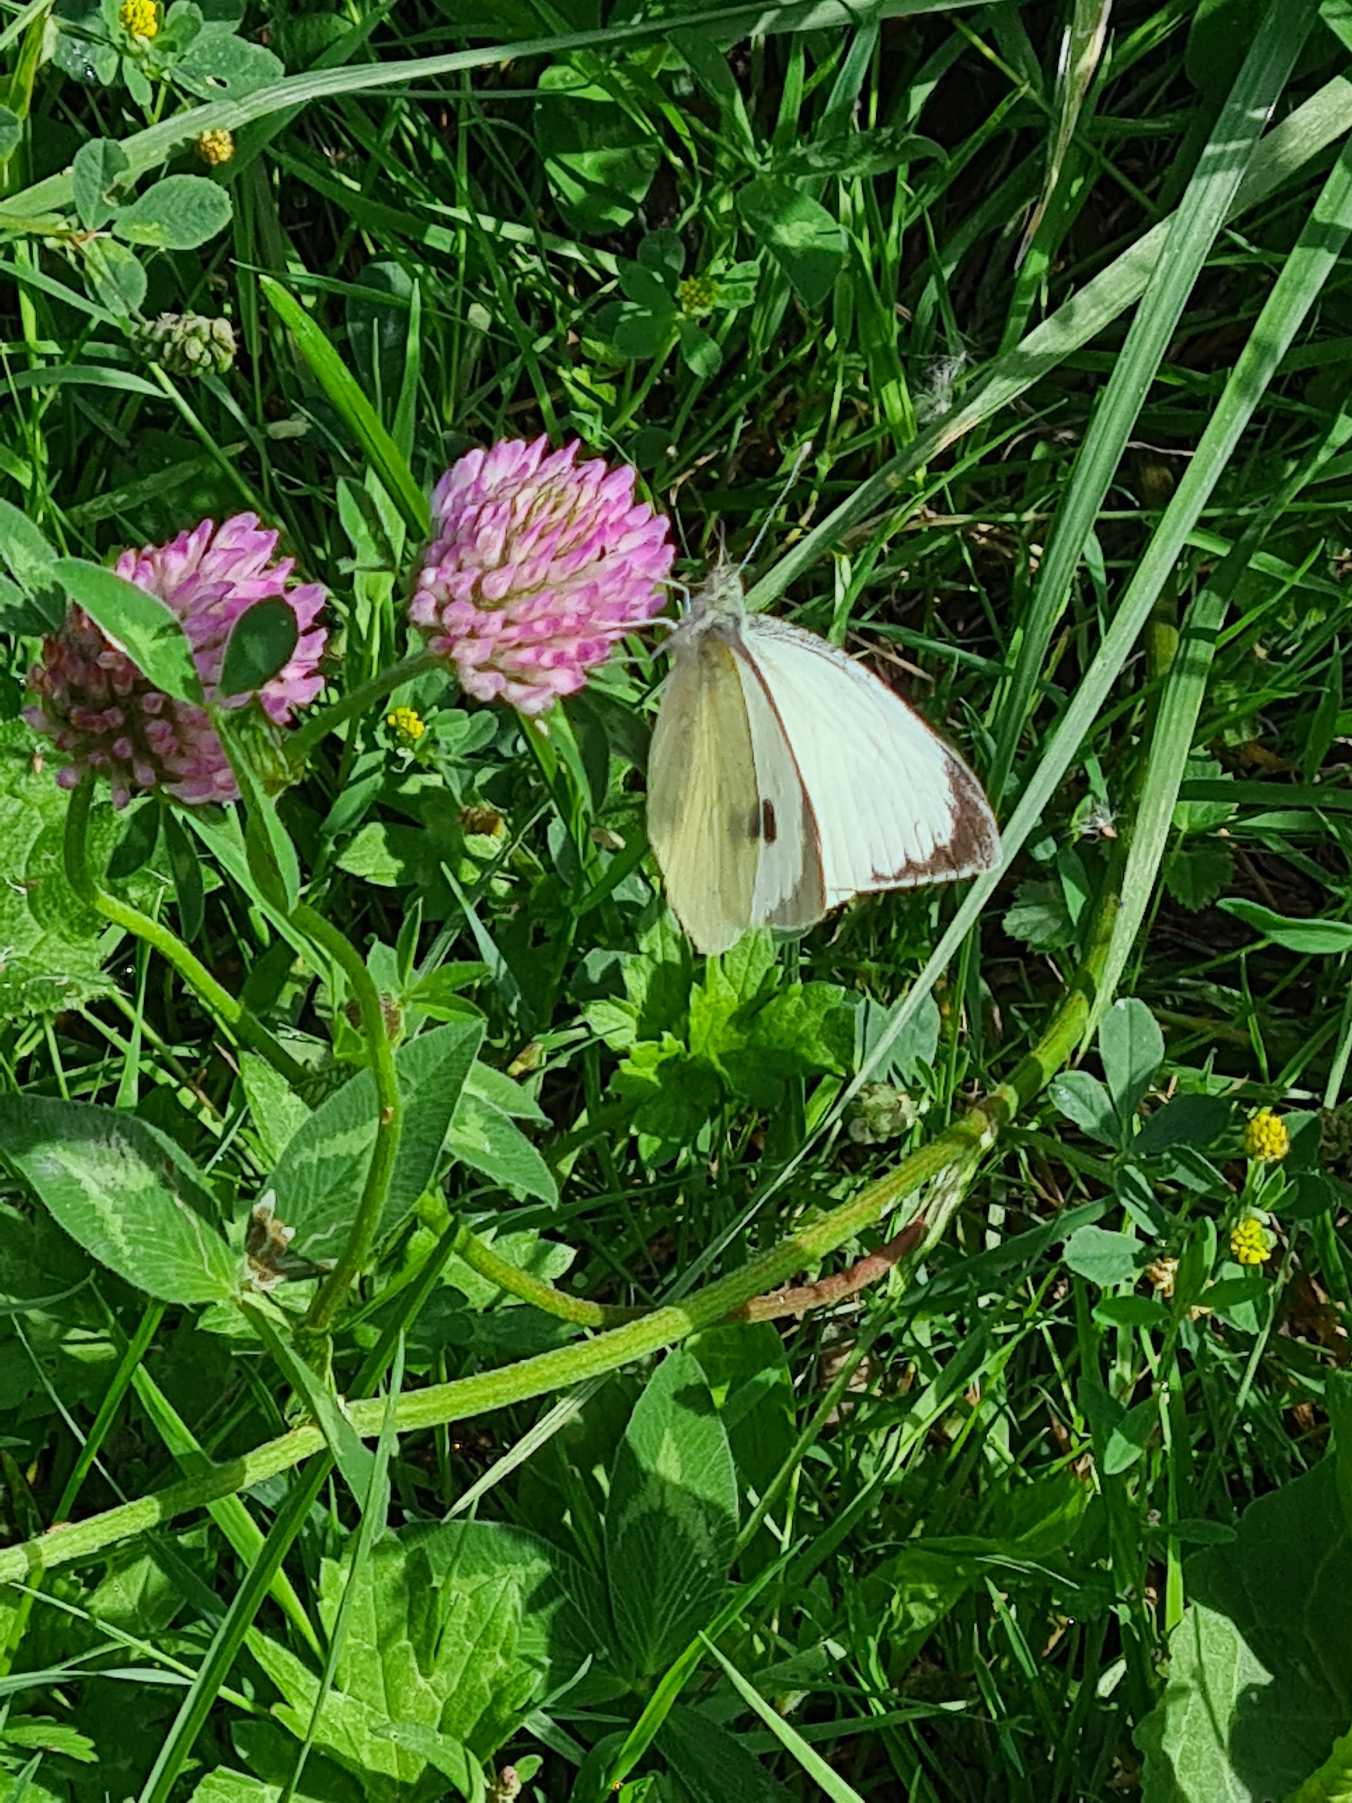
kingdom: Animalia
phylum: Arthropoda
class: Insecta
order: Lepidoptera
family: Pieridae
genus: Pieris
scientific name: Pieris brassicae
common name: Stor kålsommerfugl
